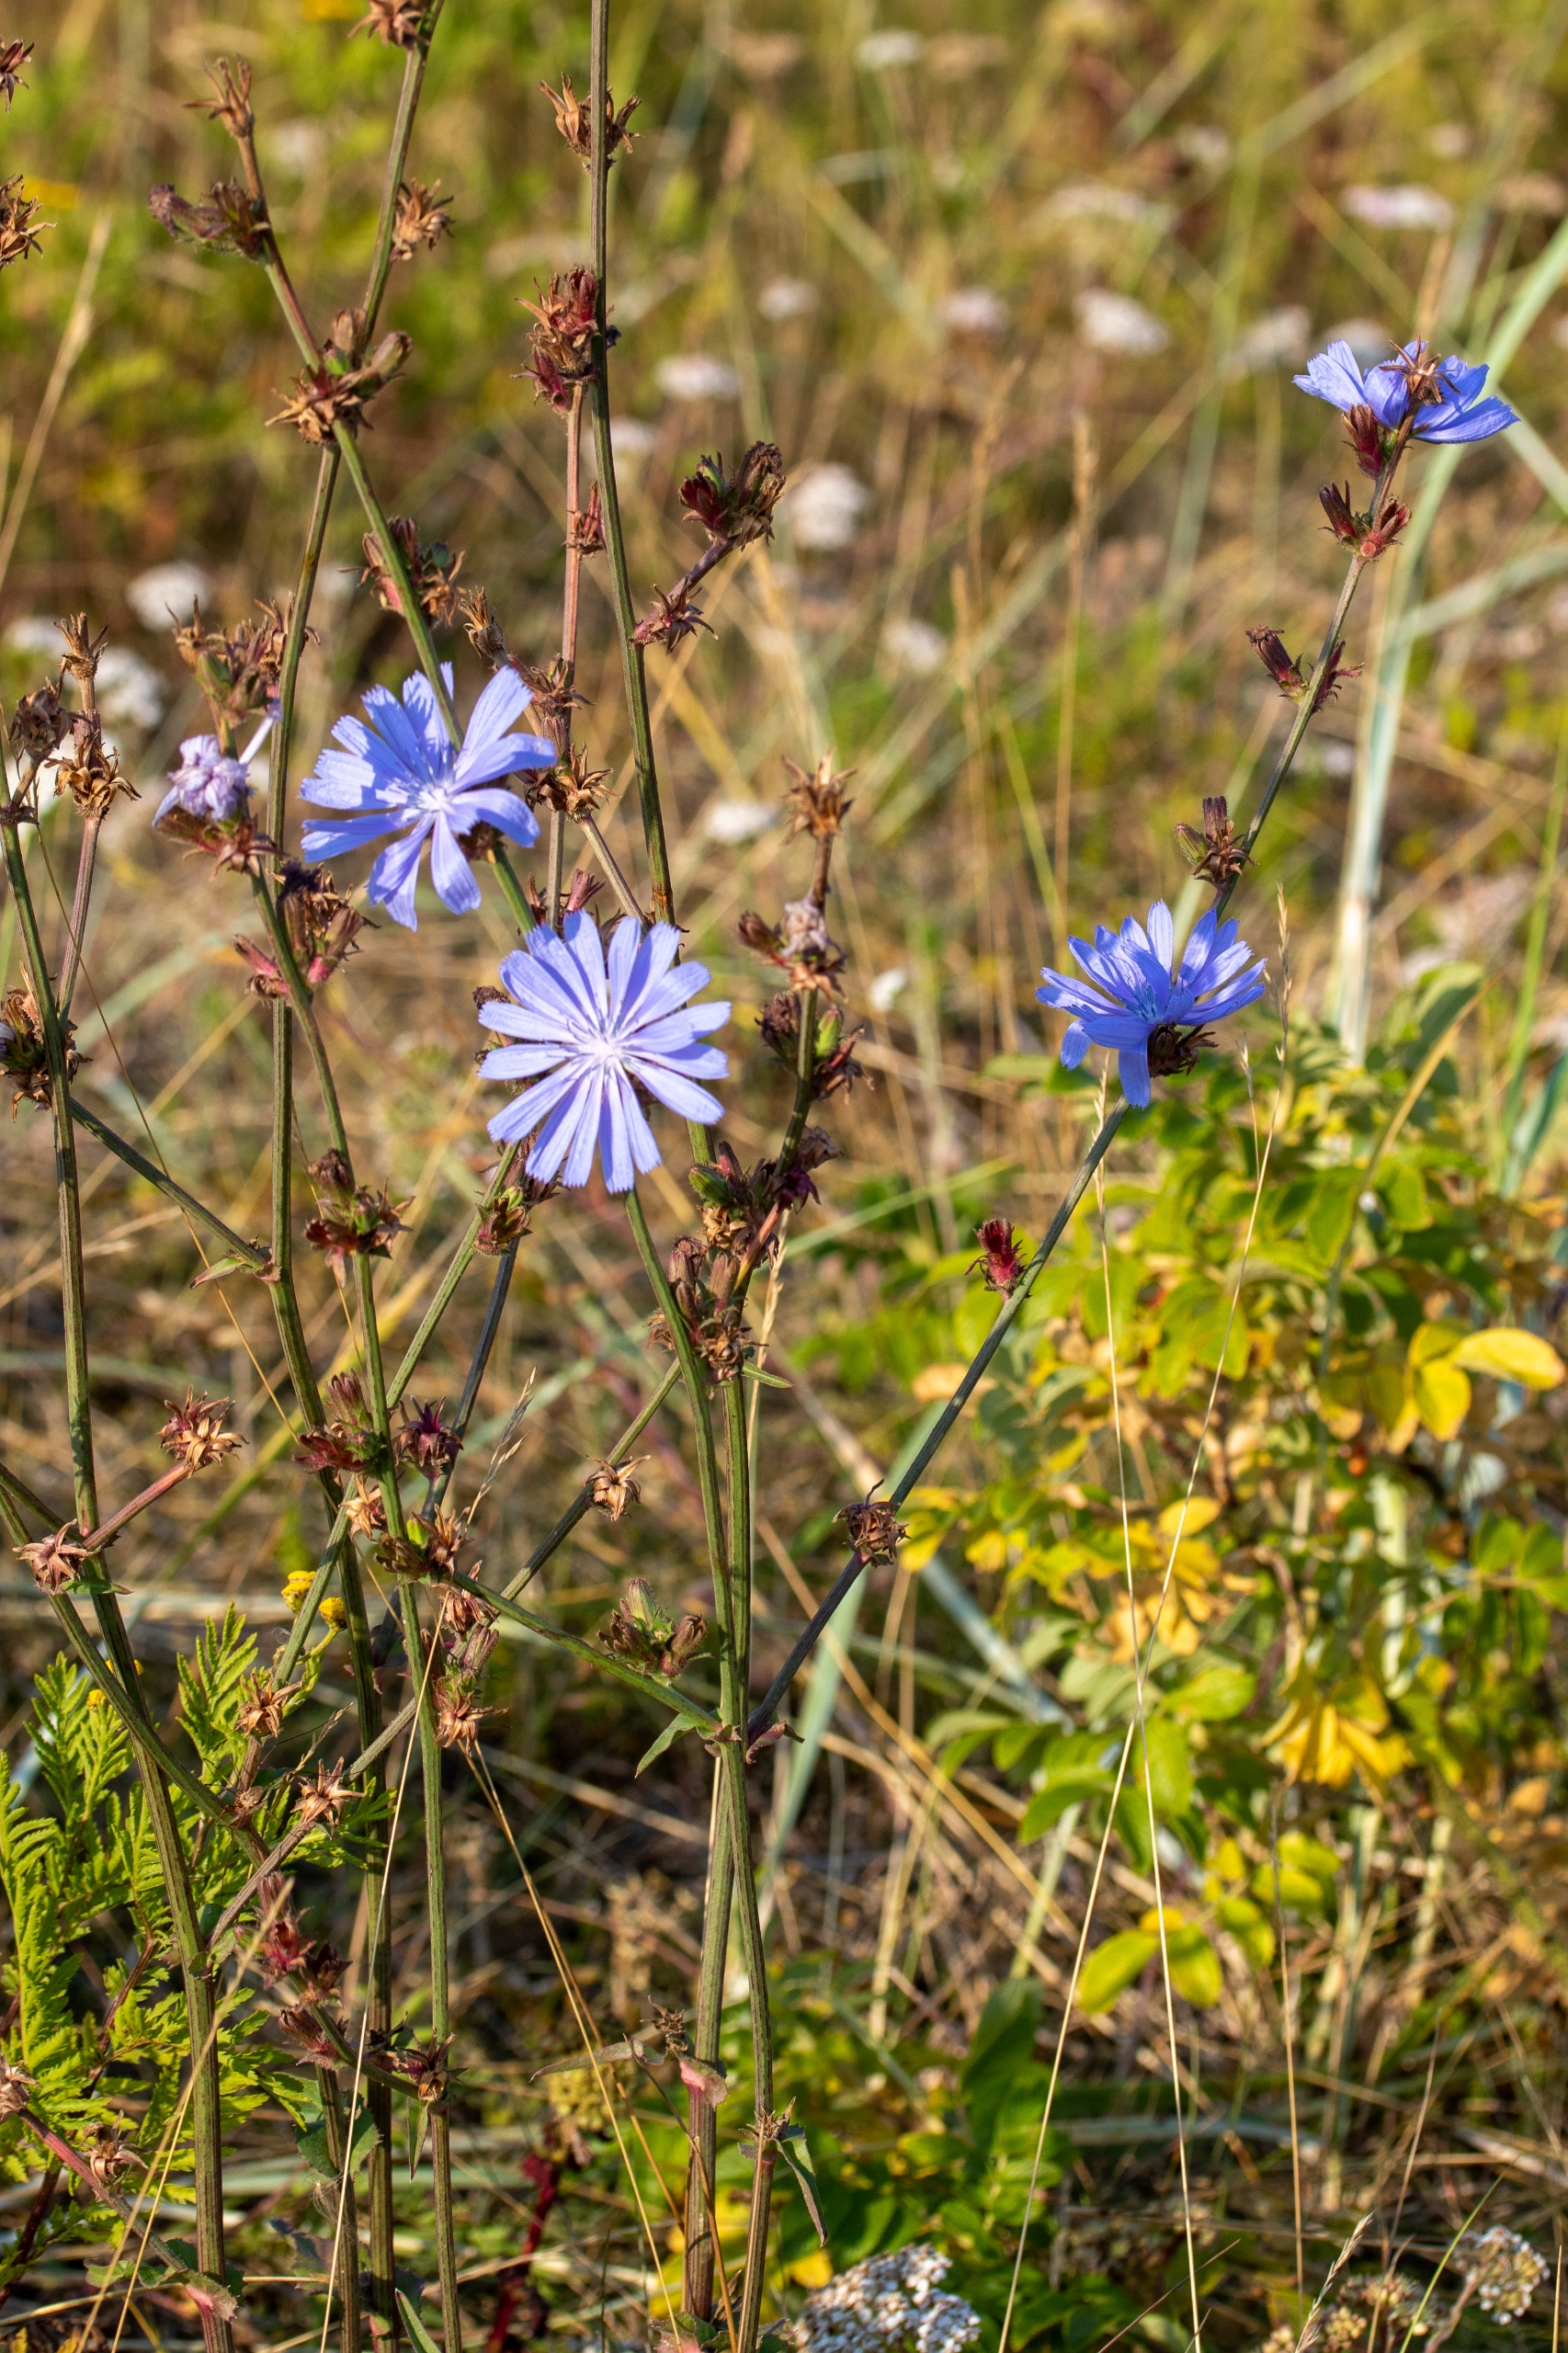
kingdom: Plantae
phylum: Tracheophyta
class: Magnoliopsida
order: Asterales
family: Asteraceae
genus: Cichorium
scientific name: Cichorium intybus
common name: Cikorie
